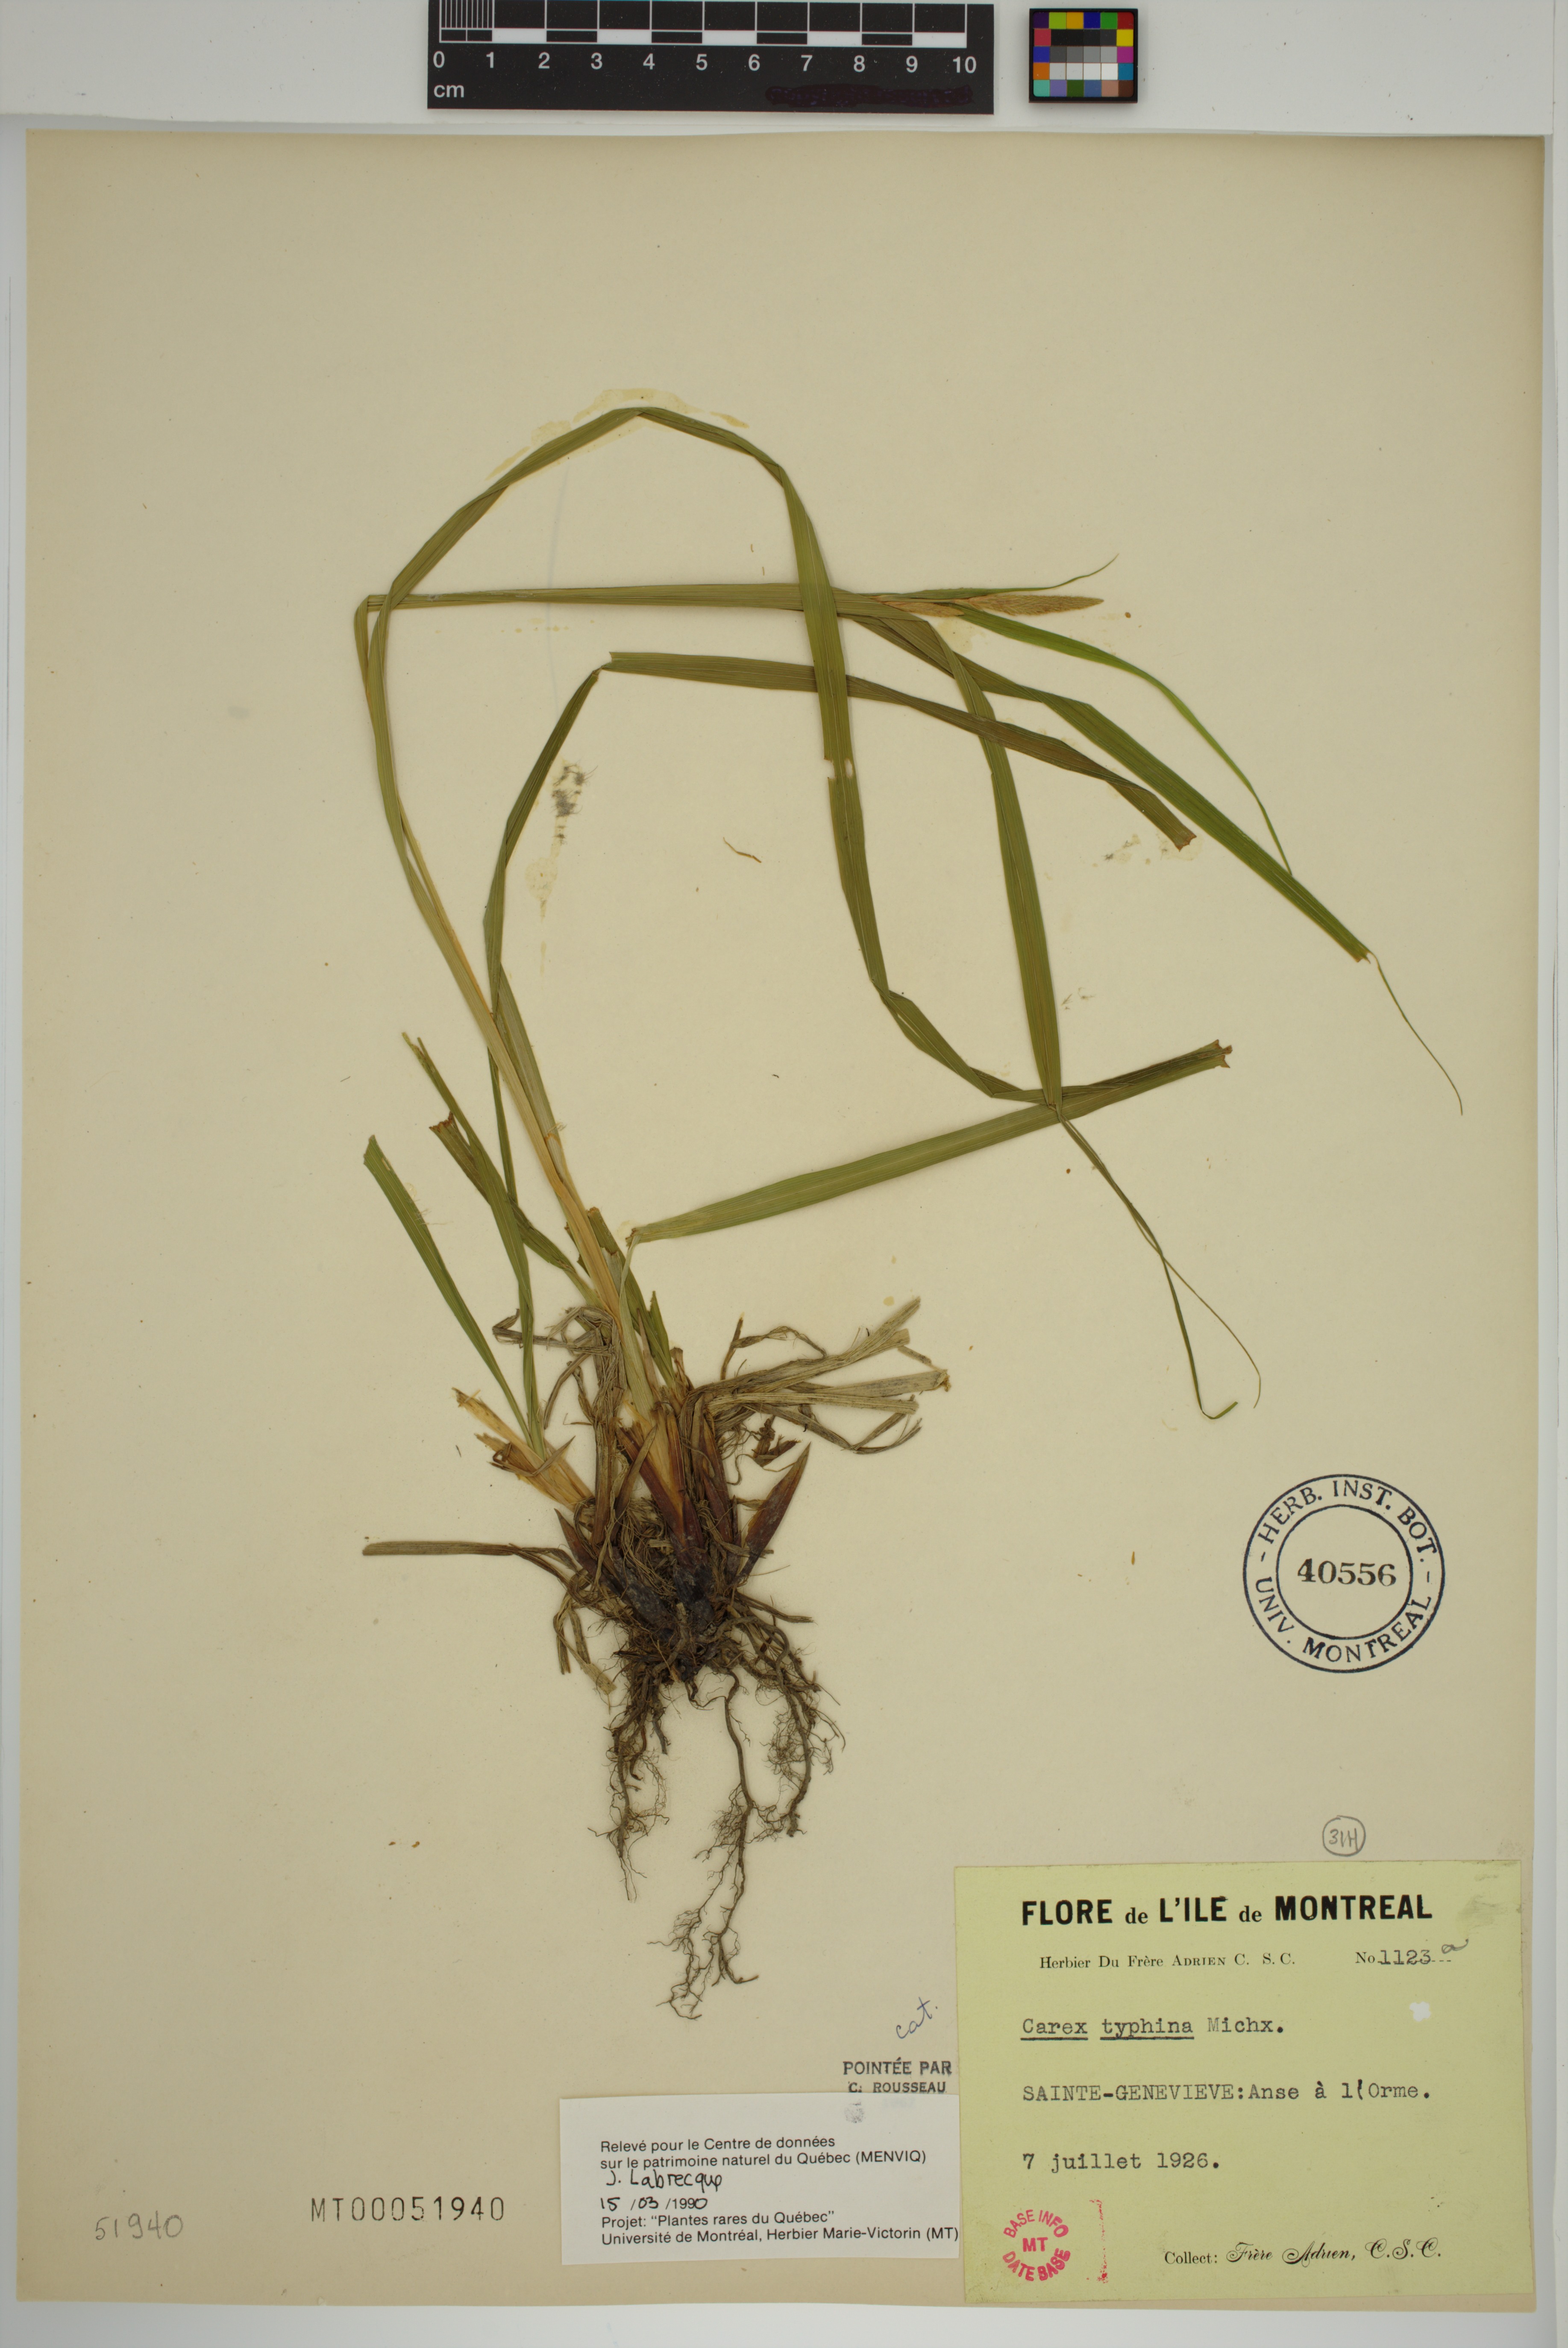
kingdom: Plantae
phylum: Tracheophyta
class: Liliopsida
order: Poales
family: Cyperaceae
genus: Carex
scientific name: Carex typhina
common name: Cattail sedge
